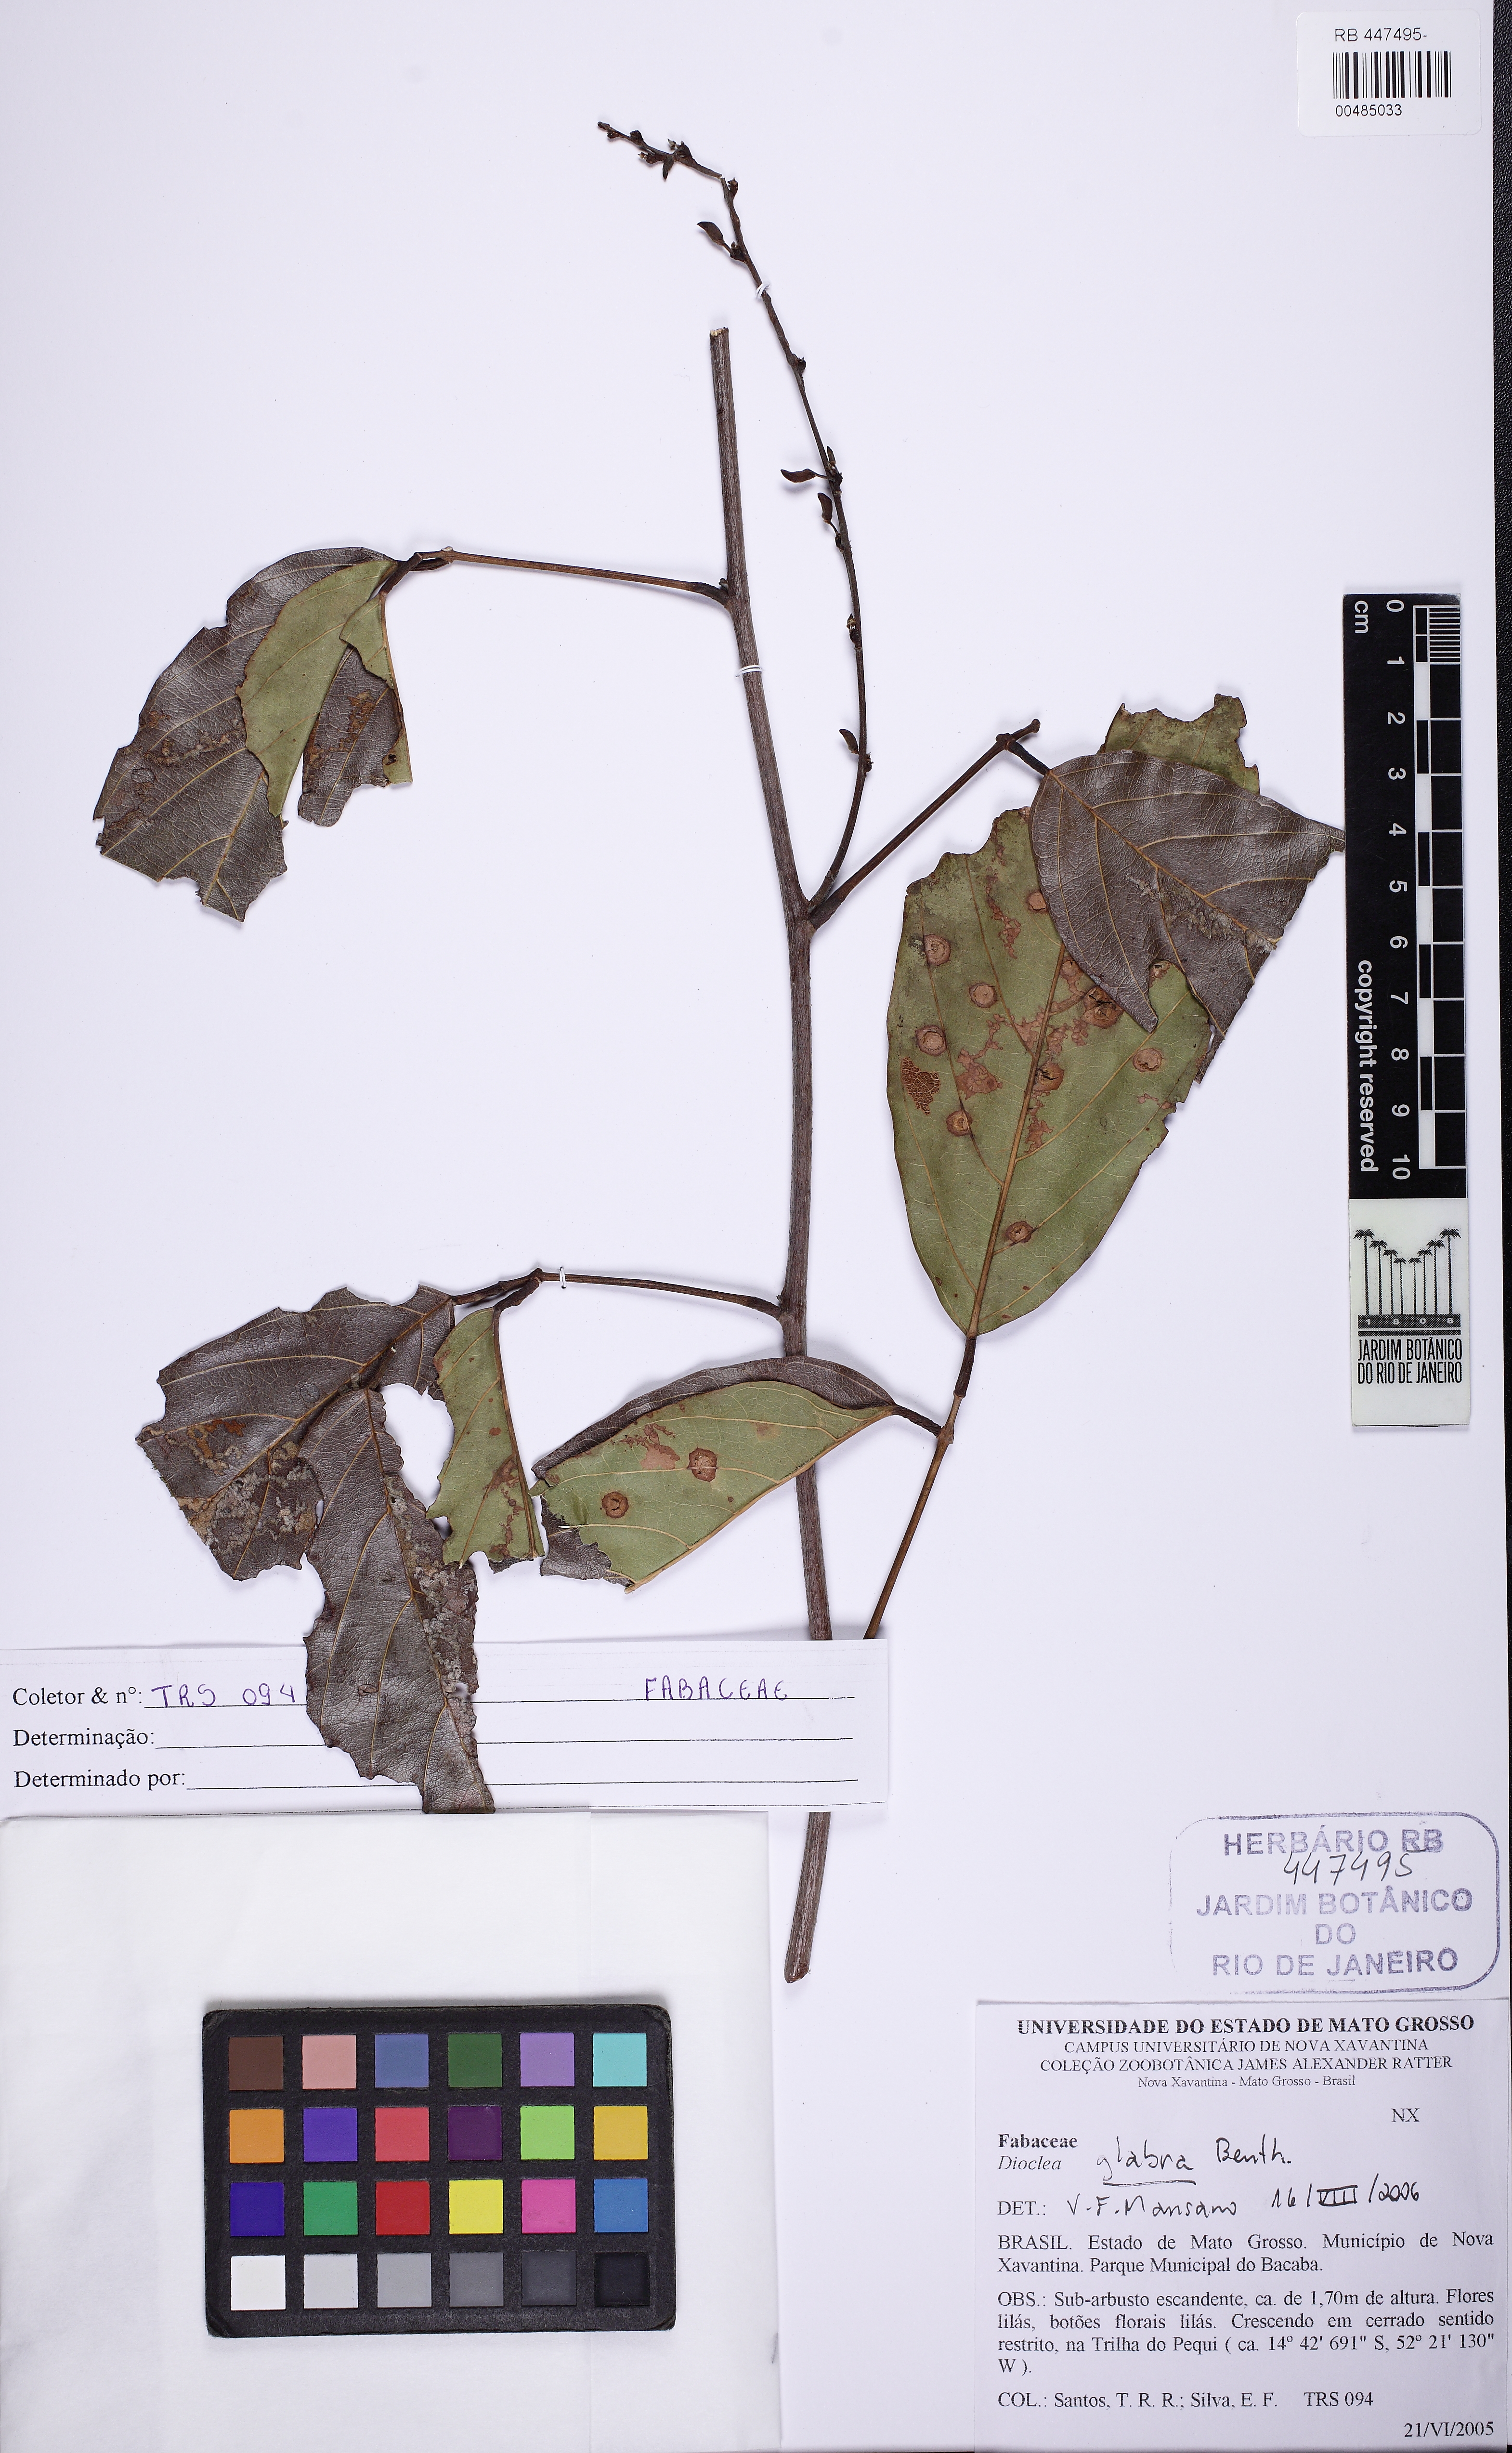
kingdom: Plantae
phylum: Tracheophyta
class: Magnoliopsida
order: Fabales
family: Fabaceae
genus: Macropsychanthus
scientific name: Macropsychanthus glaber
